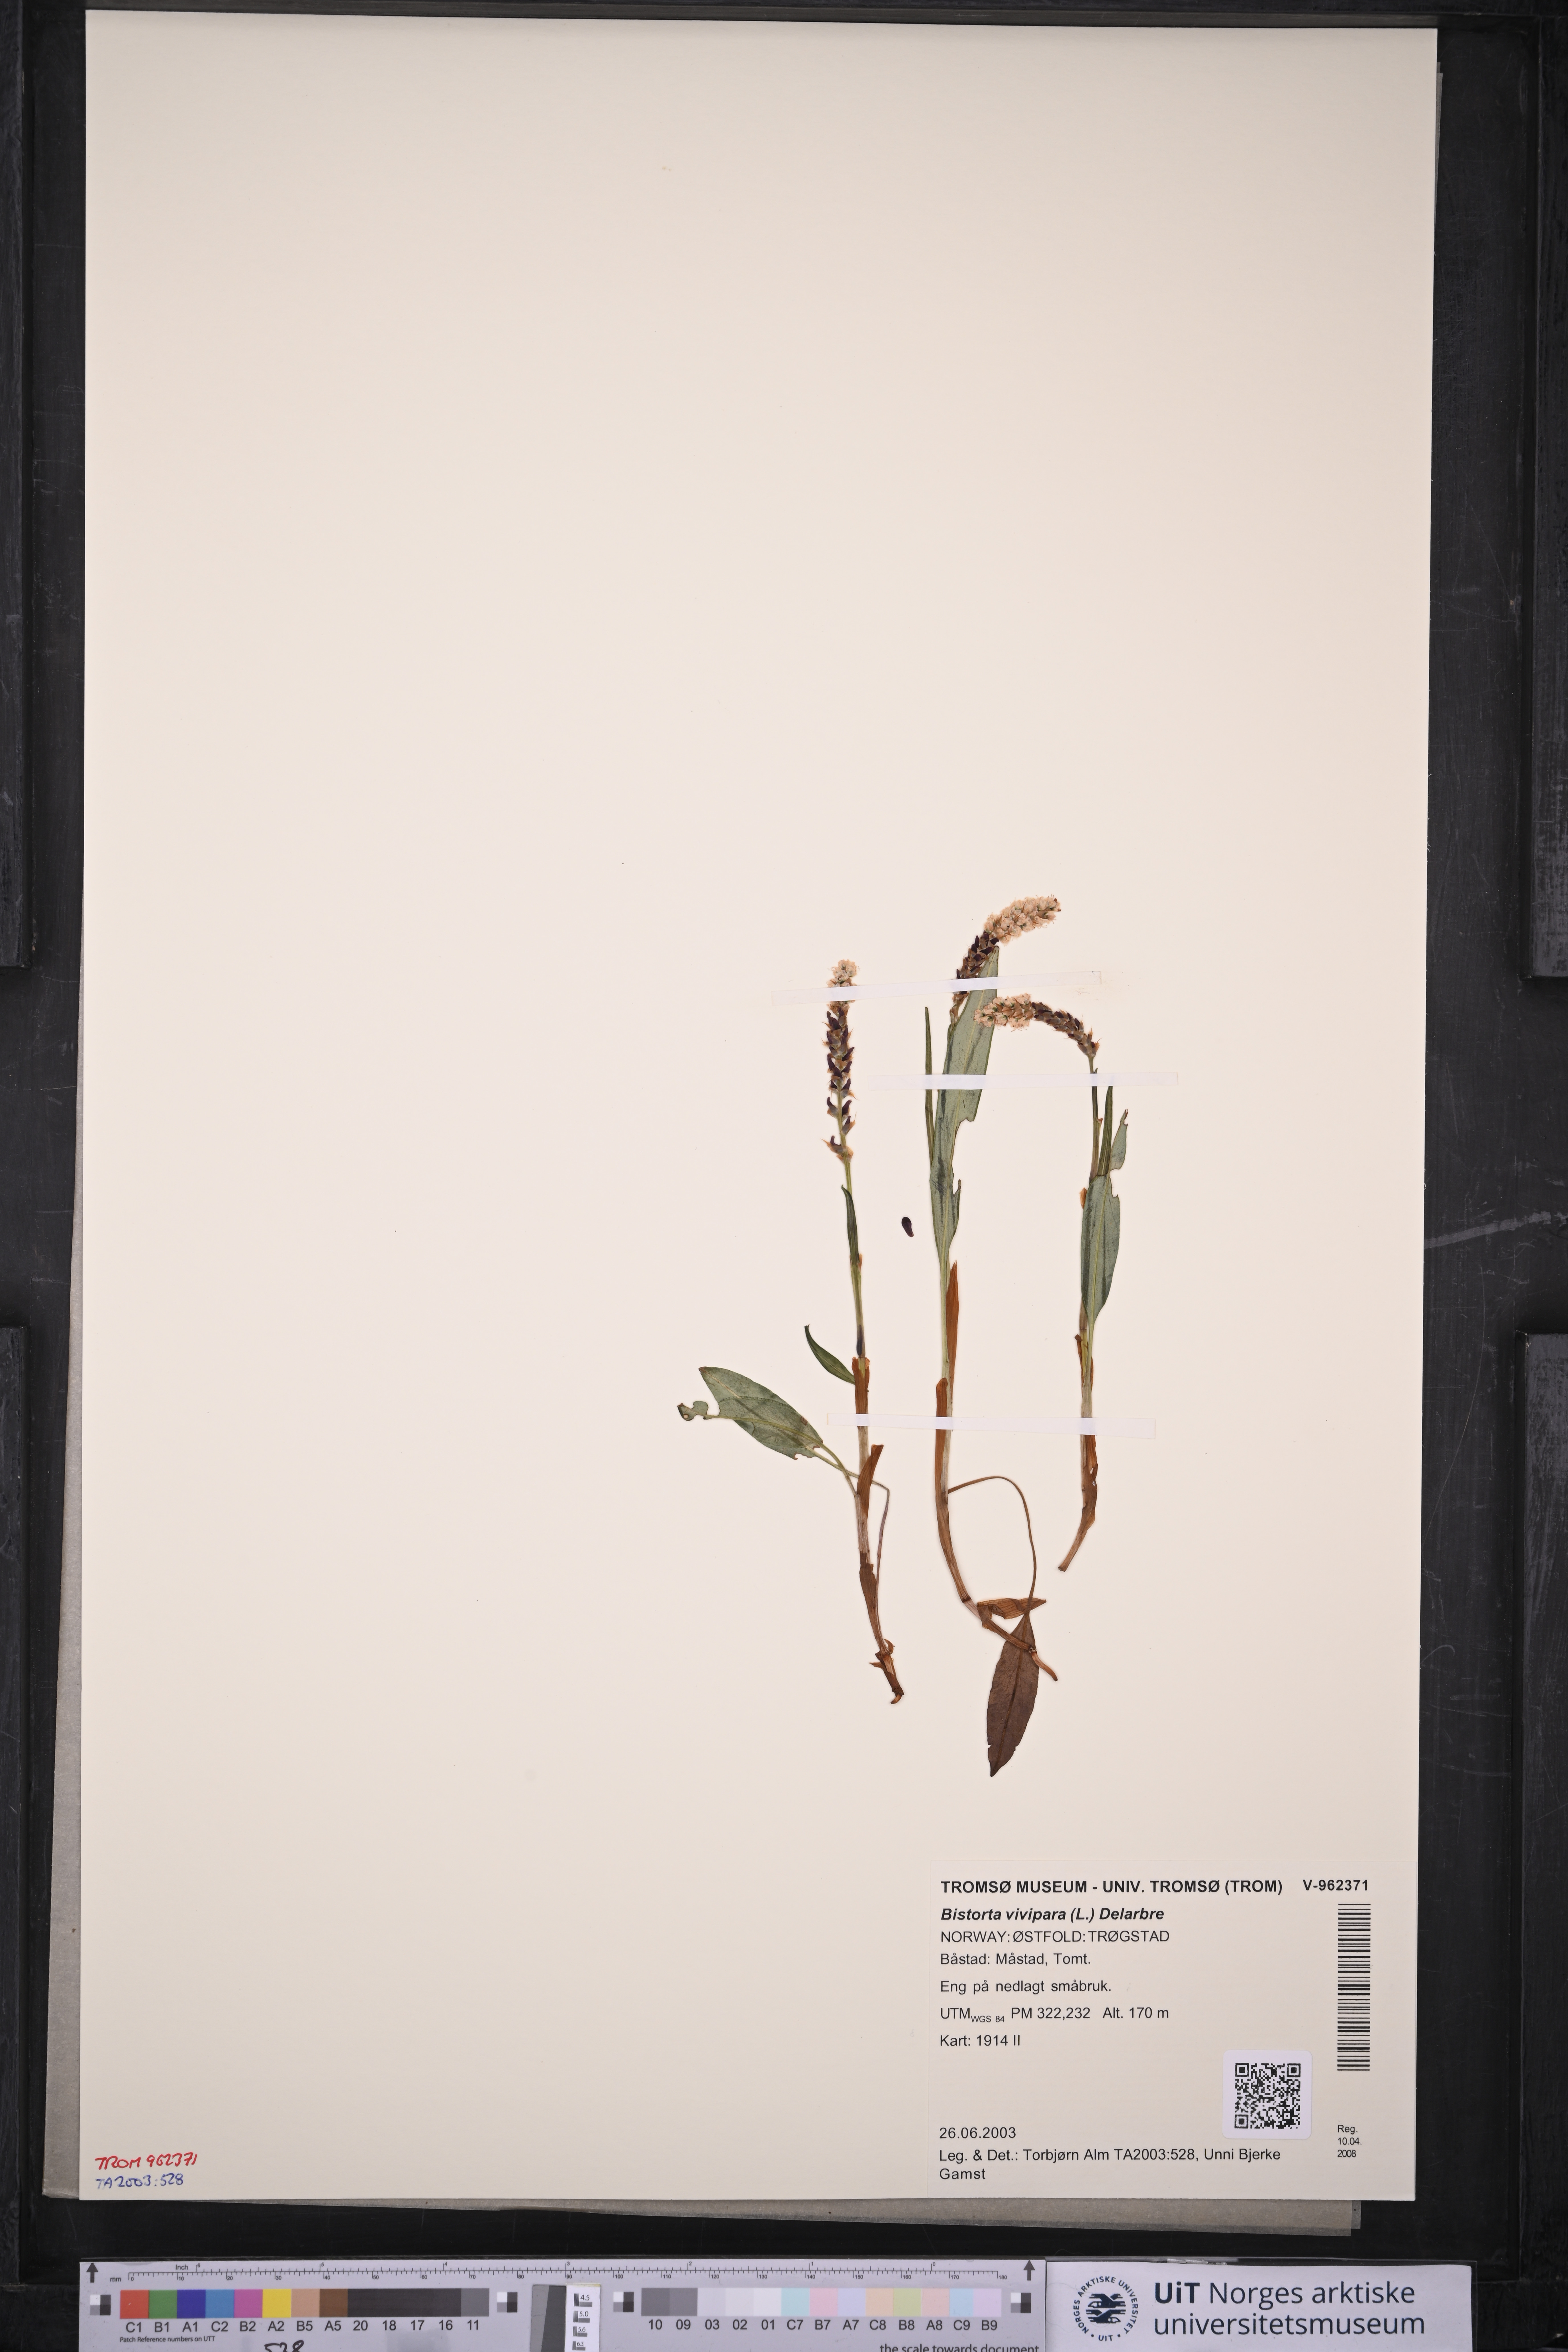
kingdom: Plantae
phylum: Tracheophyta
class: Magnoliopsida
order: Caryophyllales
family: Polygonaceae
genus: Bistorta
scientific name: Bistorta vivipara
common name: Alpine bistort
